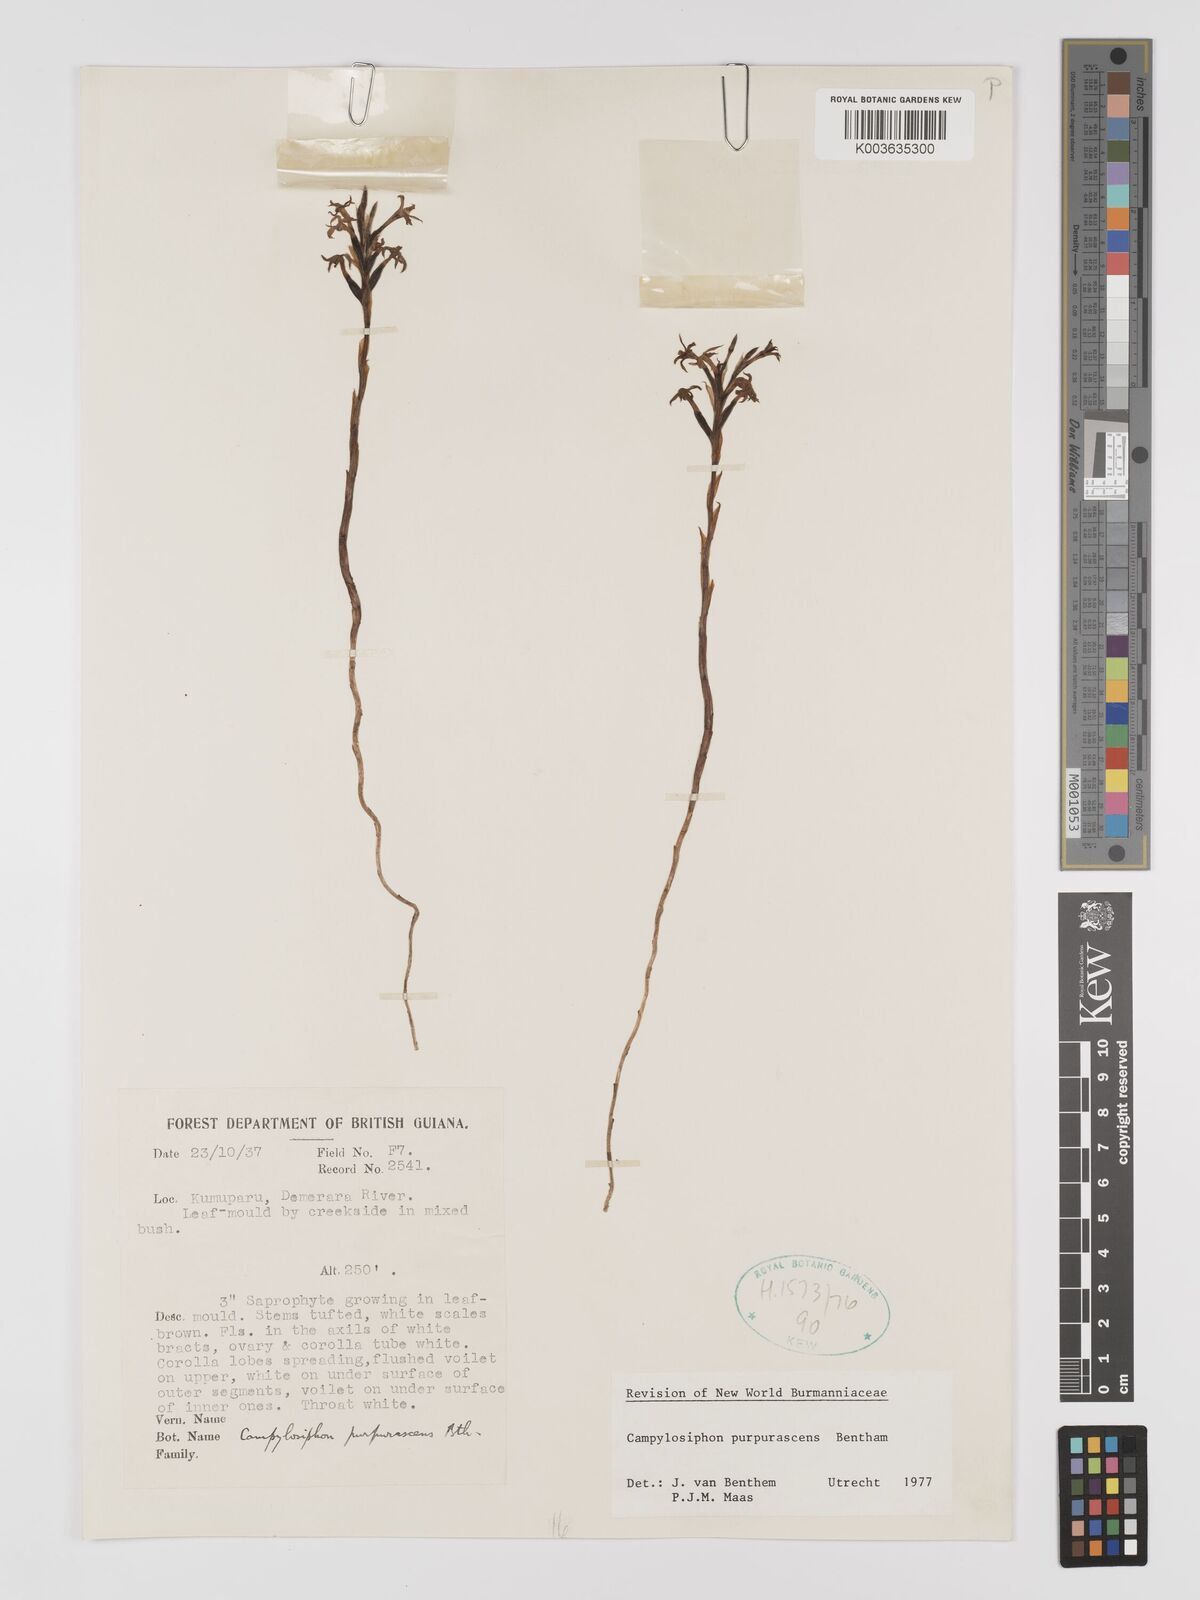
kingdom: Plantae
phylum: Tracheophyta
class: Liliopsida
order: Dioscoreales
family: Burmanniaceae
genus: Campylosiphon
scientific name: Campylosiphon purpurascens
